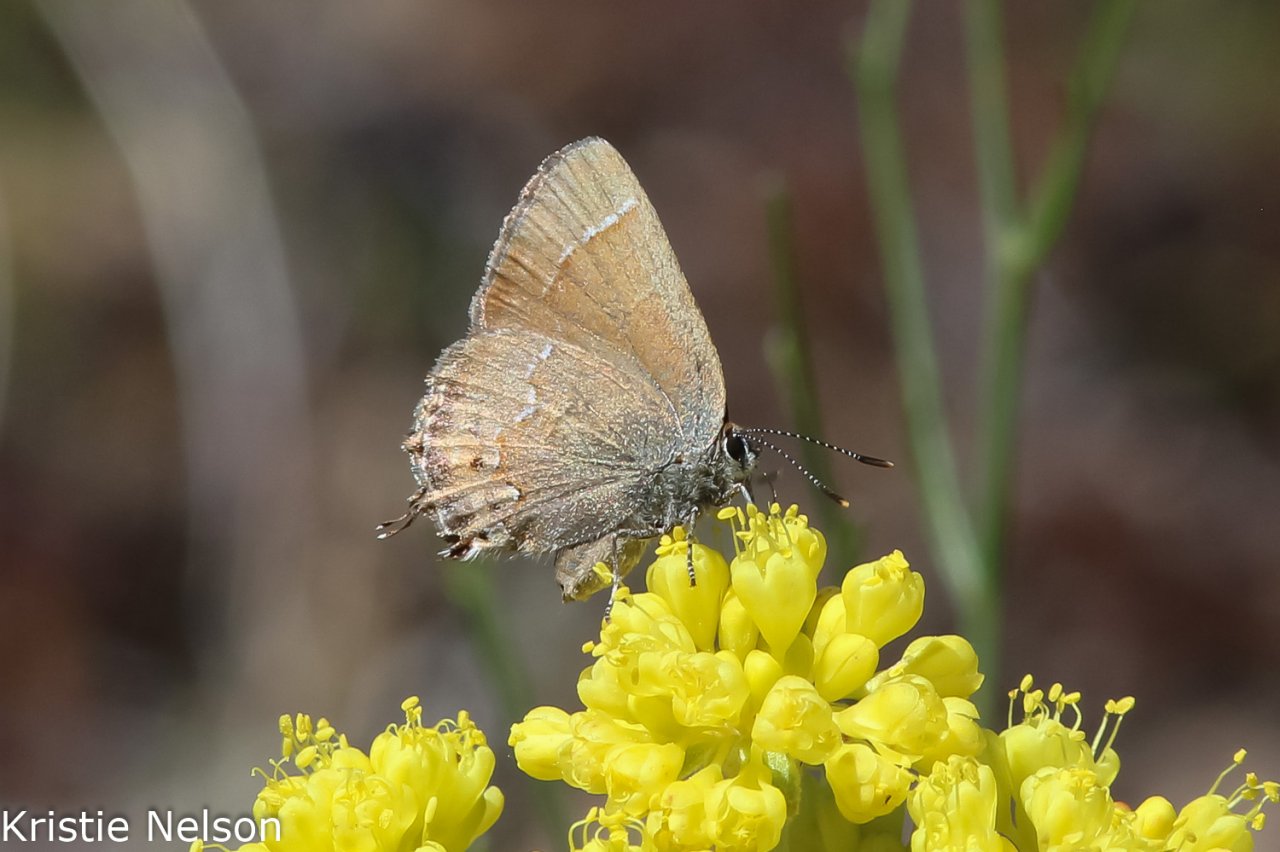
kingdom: Animalia
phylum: Arthropoda
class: Insecta
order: Lepidoptera
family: Lycaenidae
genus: Mitoura
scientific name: Mitoura gryneus
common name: Juniper Hairstreak
